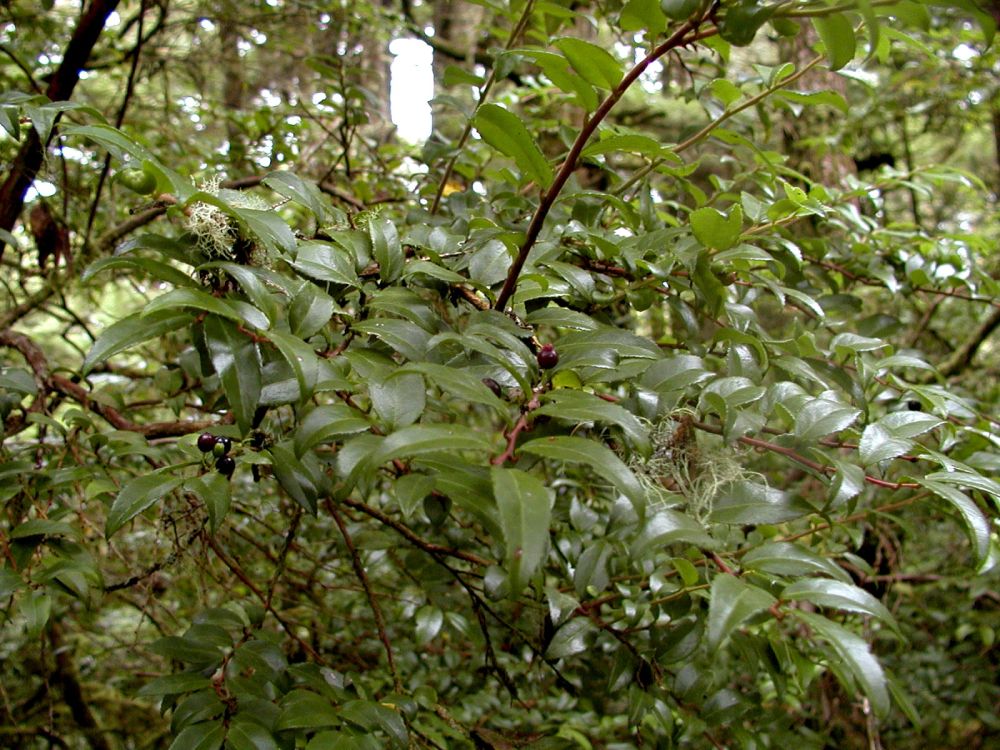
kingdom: Plantae
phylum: Tracheophyta
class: Magnoliopsida
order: Ericales
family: Ericaceae
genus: Vaccinium
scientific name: Vaccinium ovatum
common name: California-huckleberry
